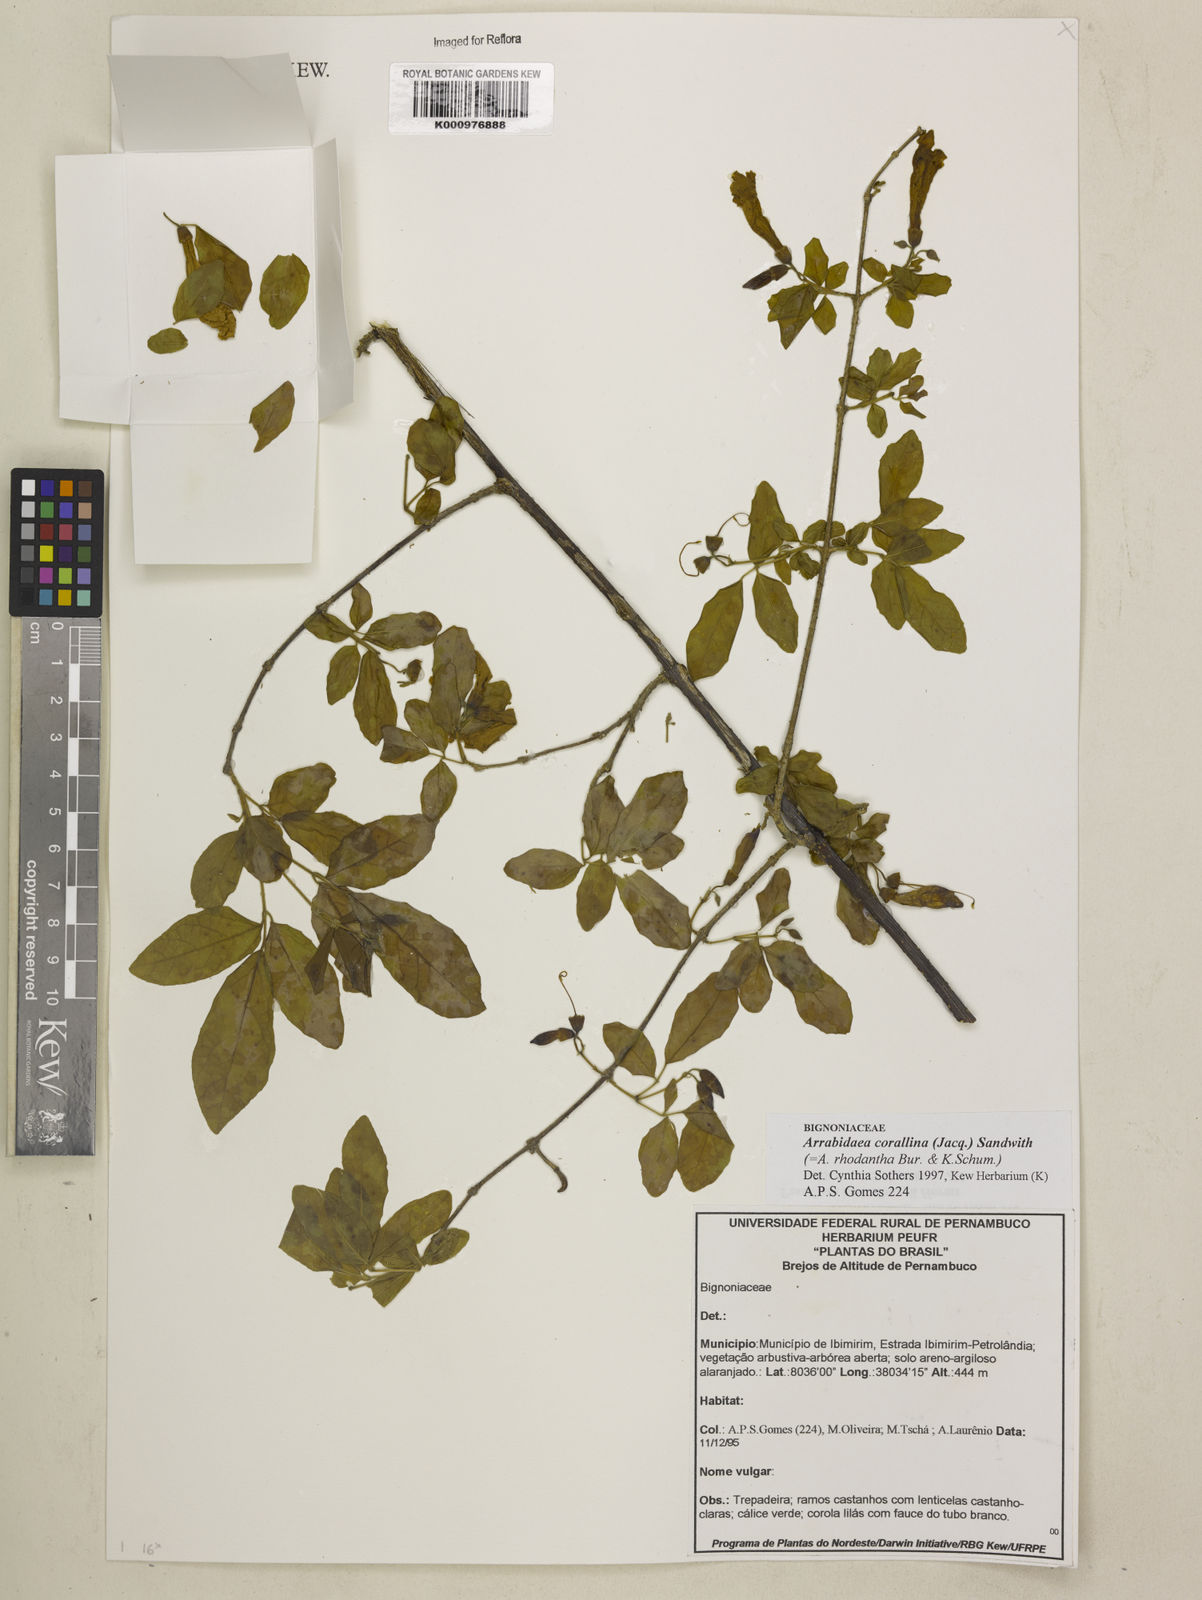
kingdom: Plantae
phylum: Tracheophyta
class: Magnoliopsida
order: Lamiales
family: Bignoniaceae
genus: Tanaecium
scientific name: Tanaecium dichotomum
